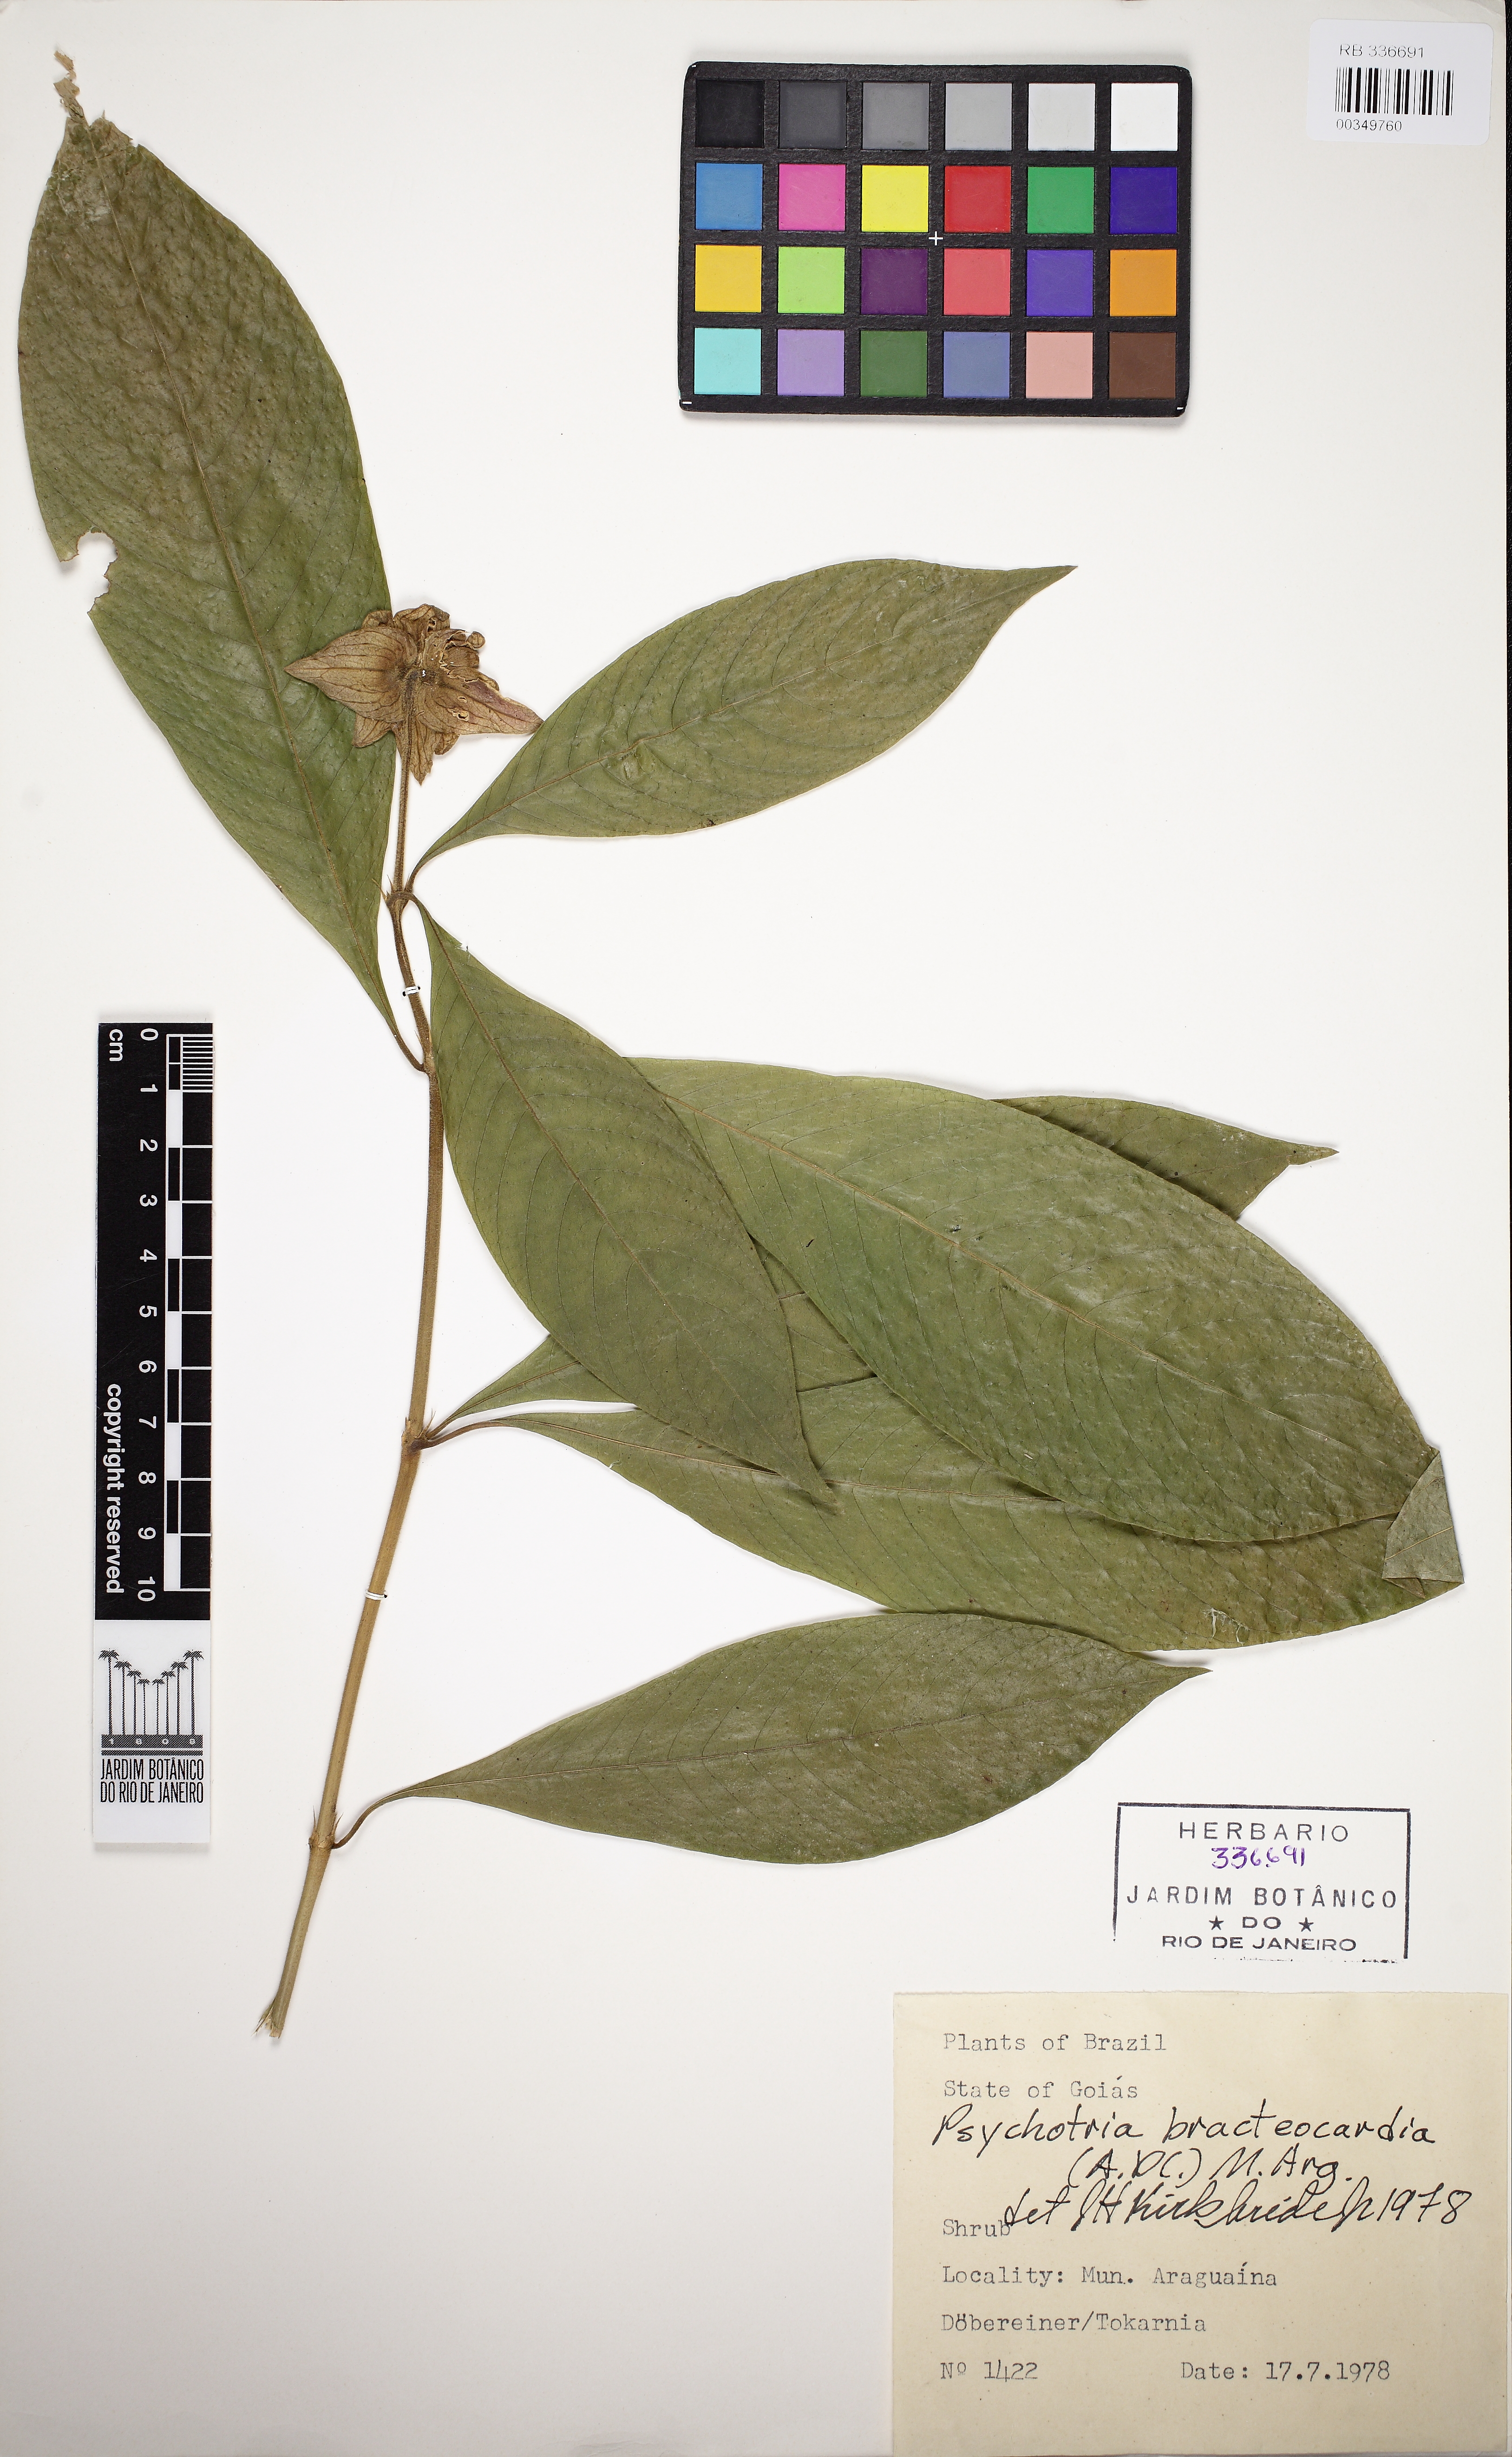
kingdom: Plantae
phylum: Tracheophyta
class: Magnoliopsida
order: Gentianales
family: Rubiaceae
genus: Palicourea
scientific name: Palicourea bracteocardia
